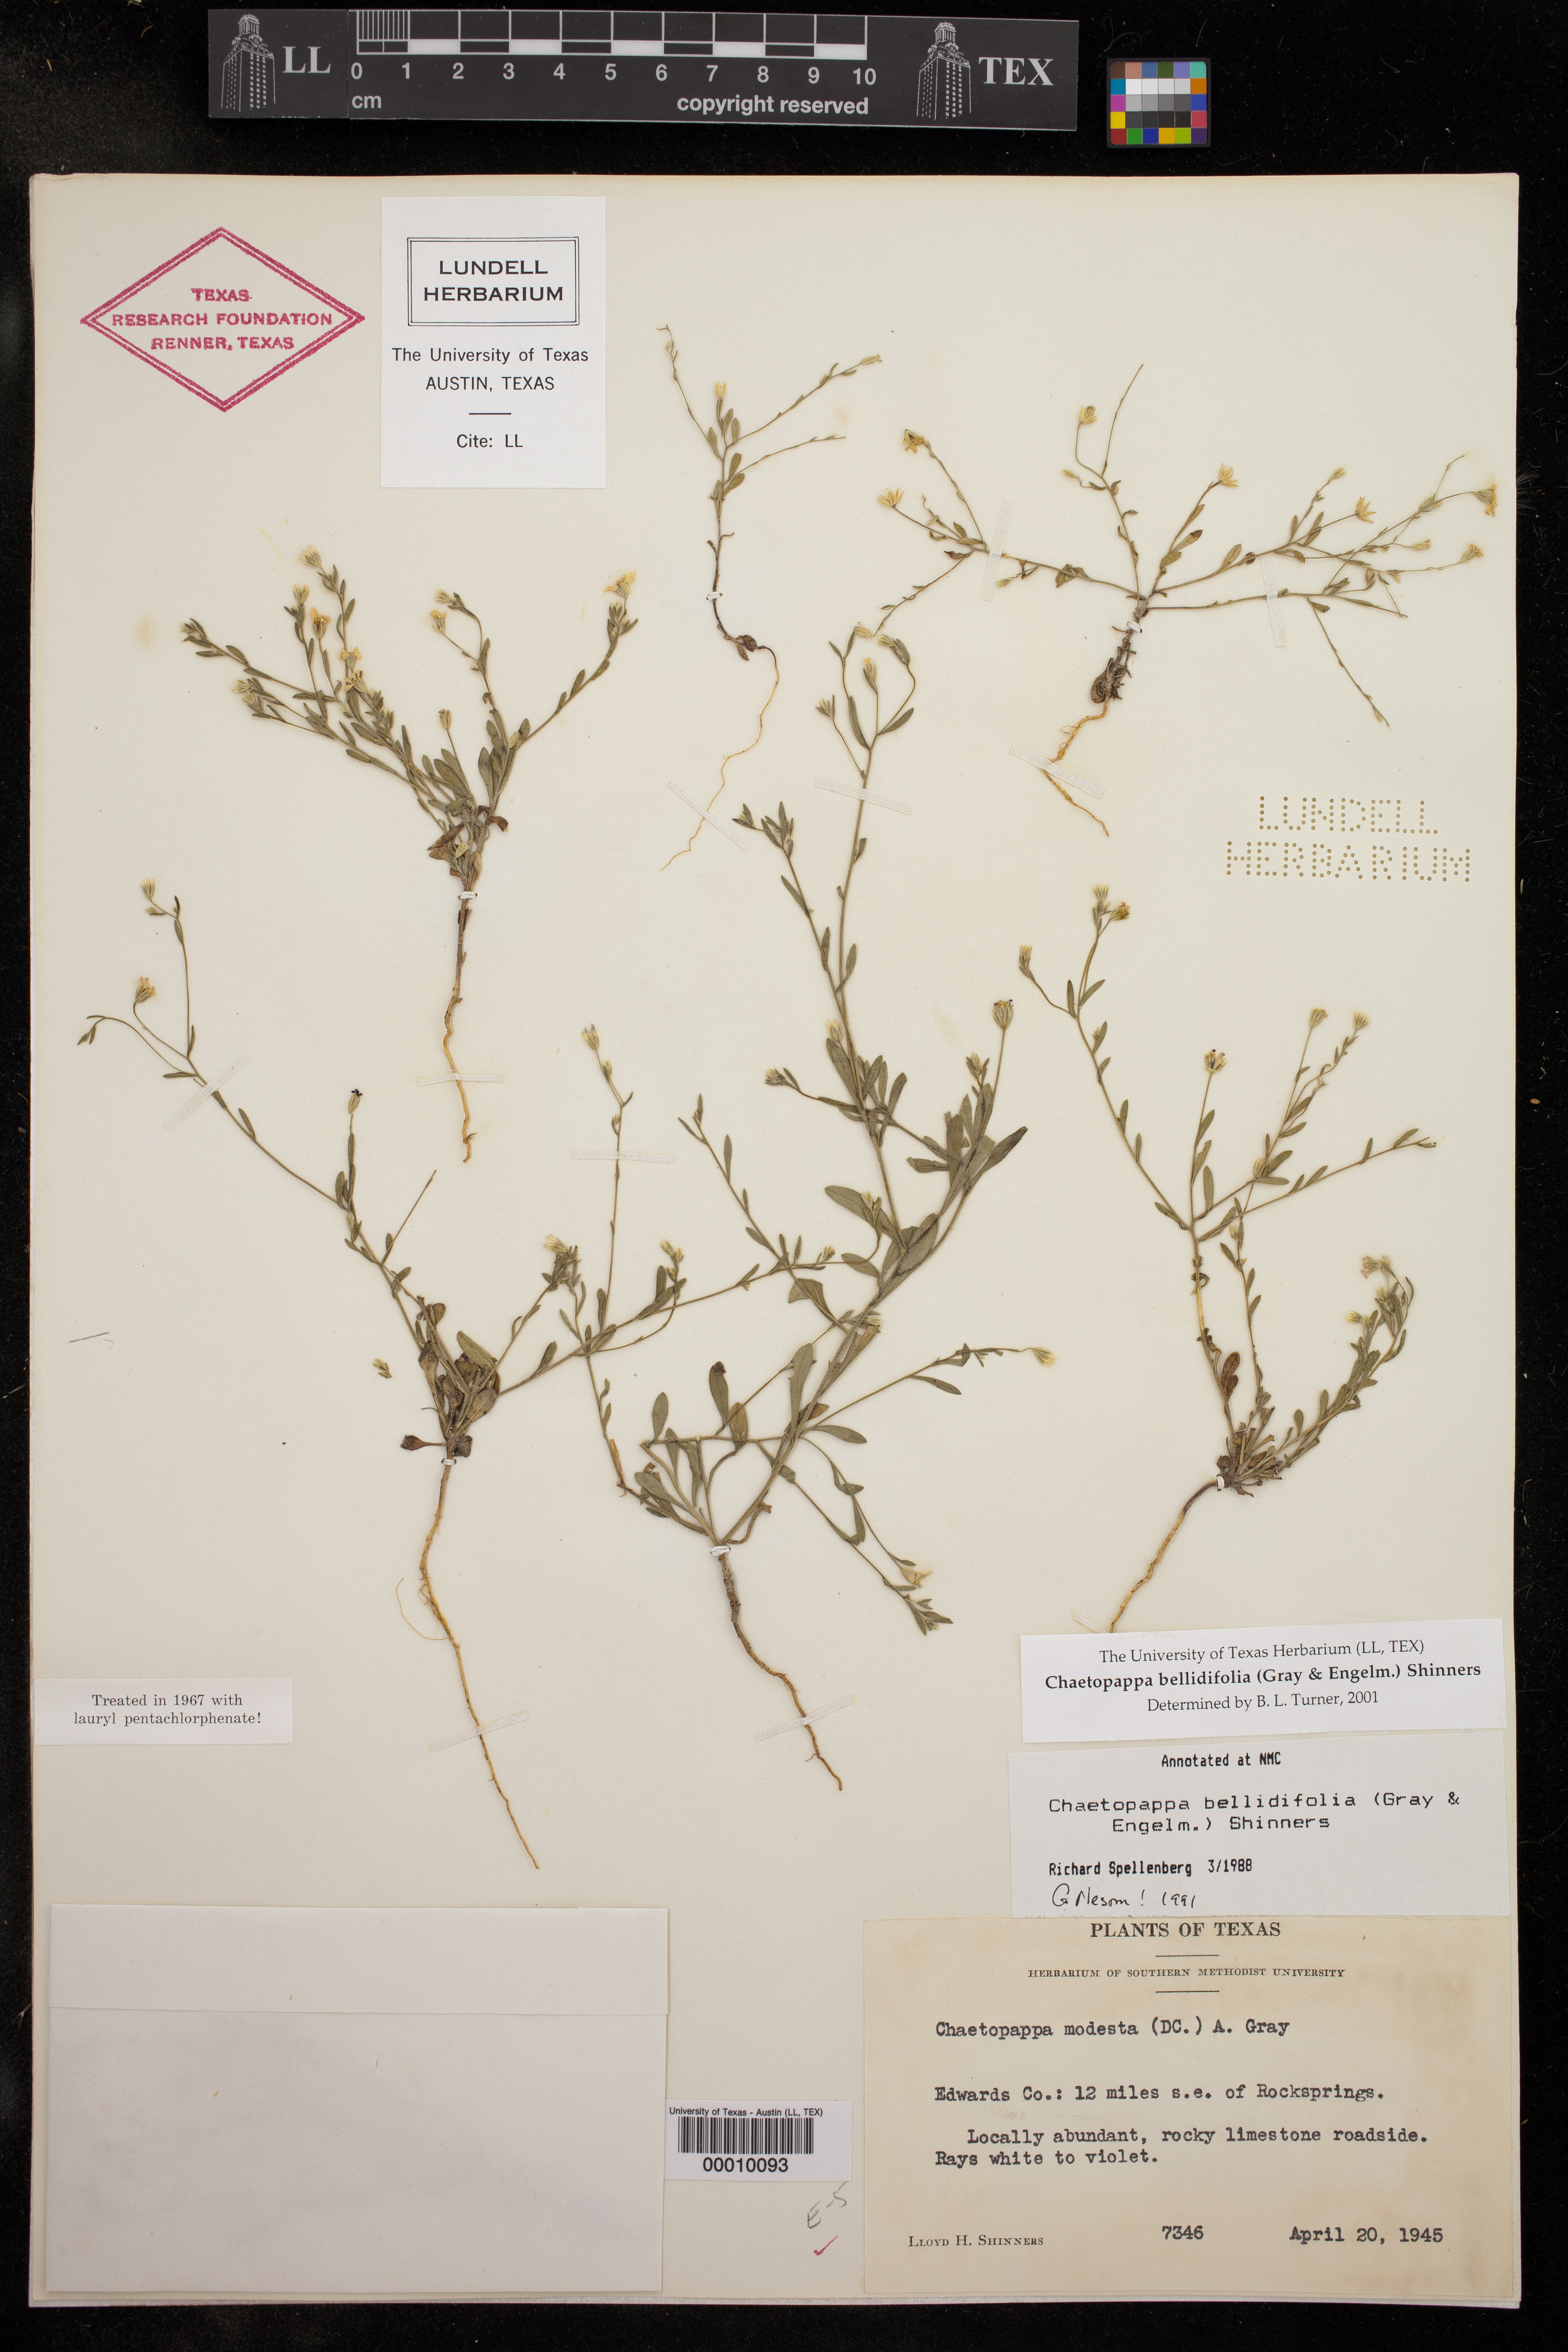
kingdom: Plantae
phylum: Tracheophyta
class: Magnoliopsida
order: Asterales
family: Asteraceae
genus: Chaetopappa
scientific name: Chaetopappa bellidifolia
